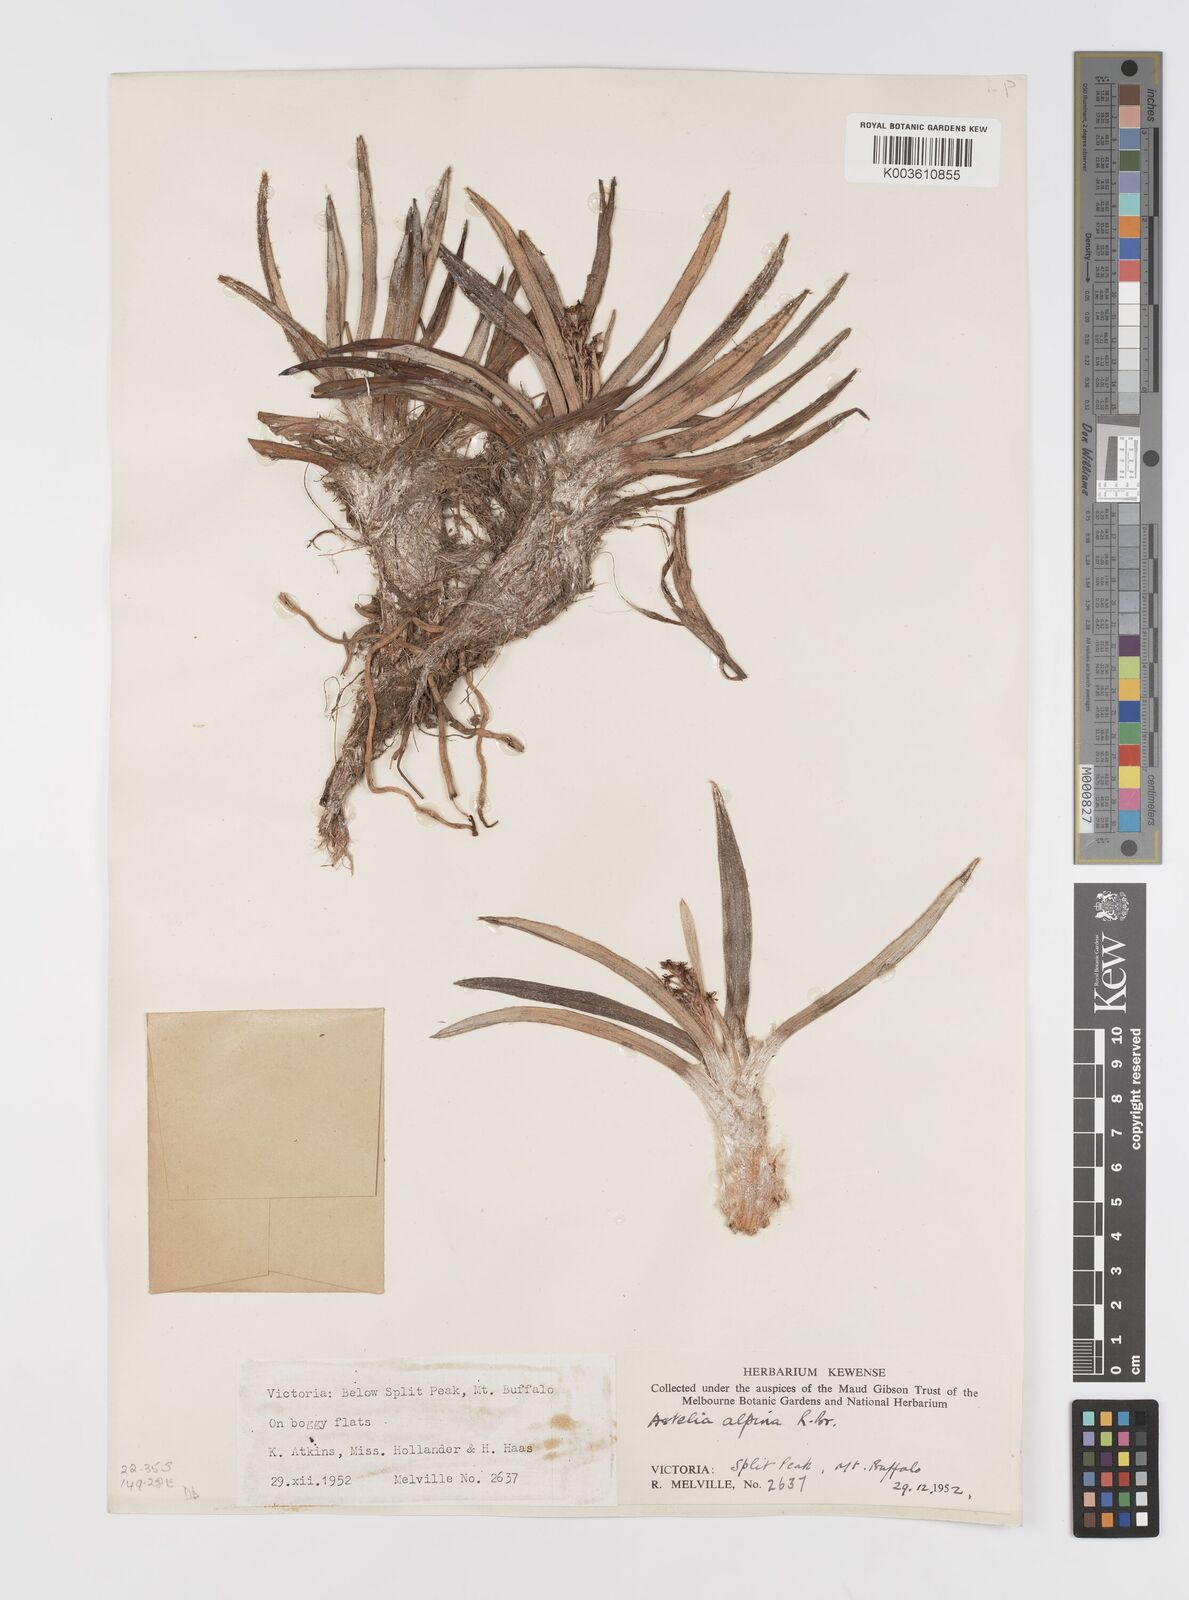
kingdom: Plantae
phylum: Tracheophyta
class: Liliopsida
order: Asparagales
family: Asteliaceae
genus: Astelia
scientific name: Astelia alpina
